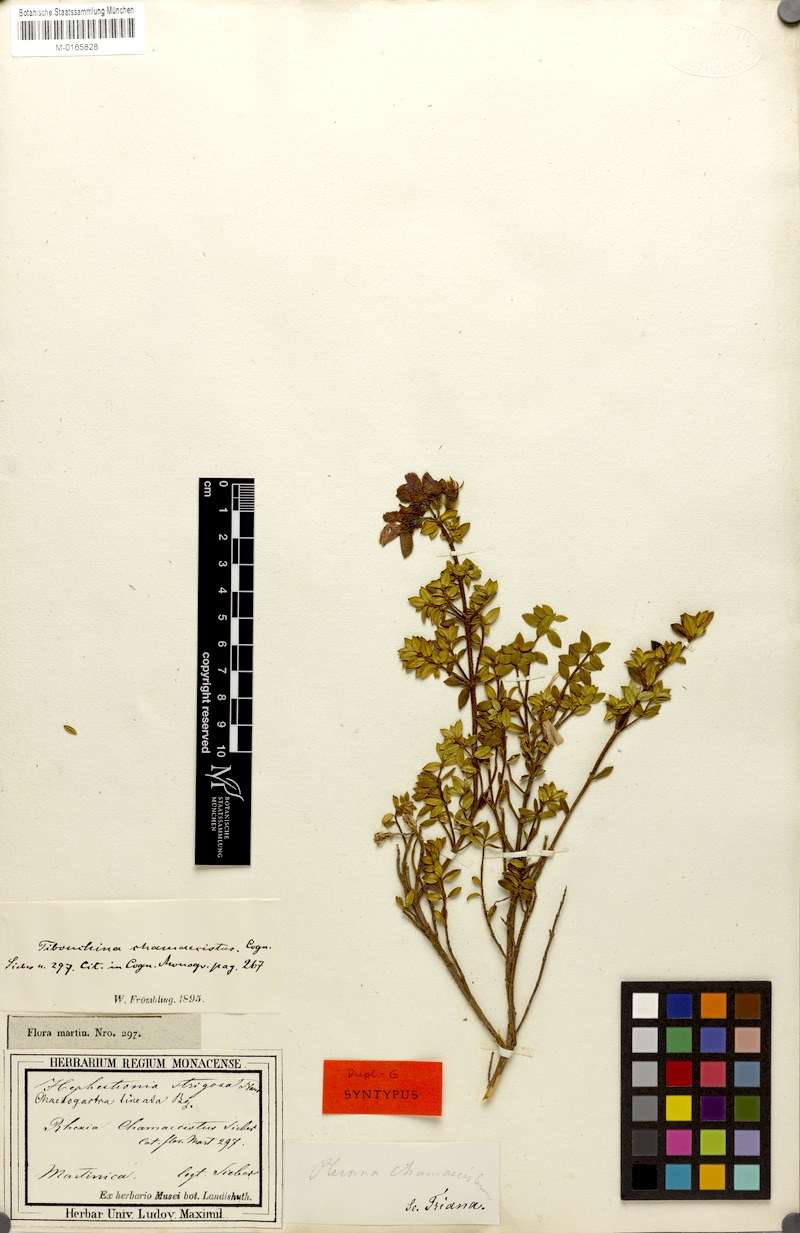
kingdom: Plantae
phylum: Tracheophyta
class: Magnoliopsida
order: Myrtales
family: Melastomataceae
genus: Chaetogastra
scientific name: Chaetogastra chamaecistus
